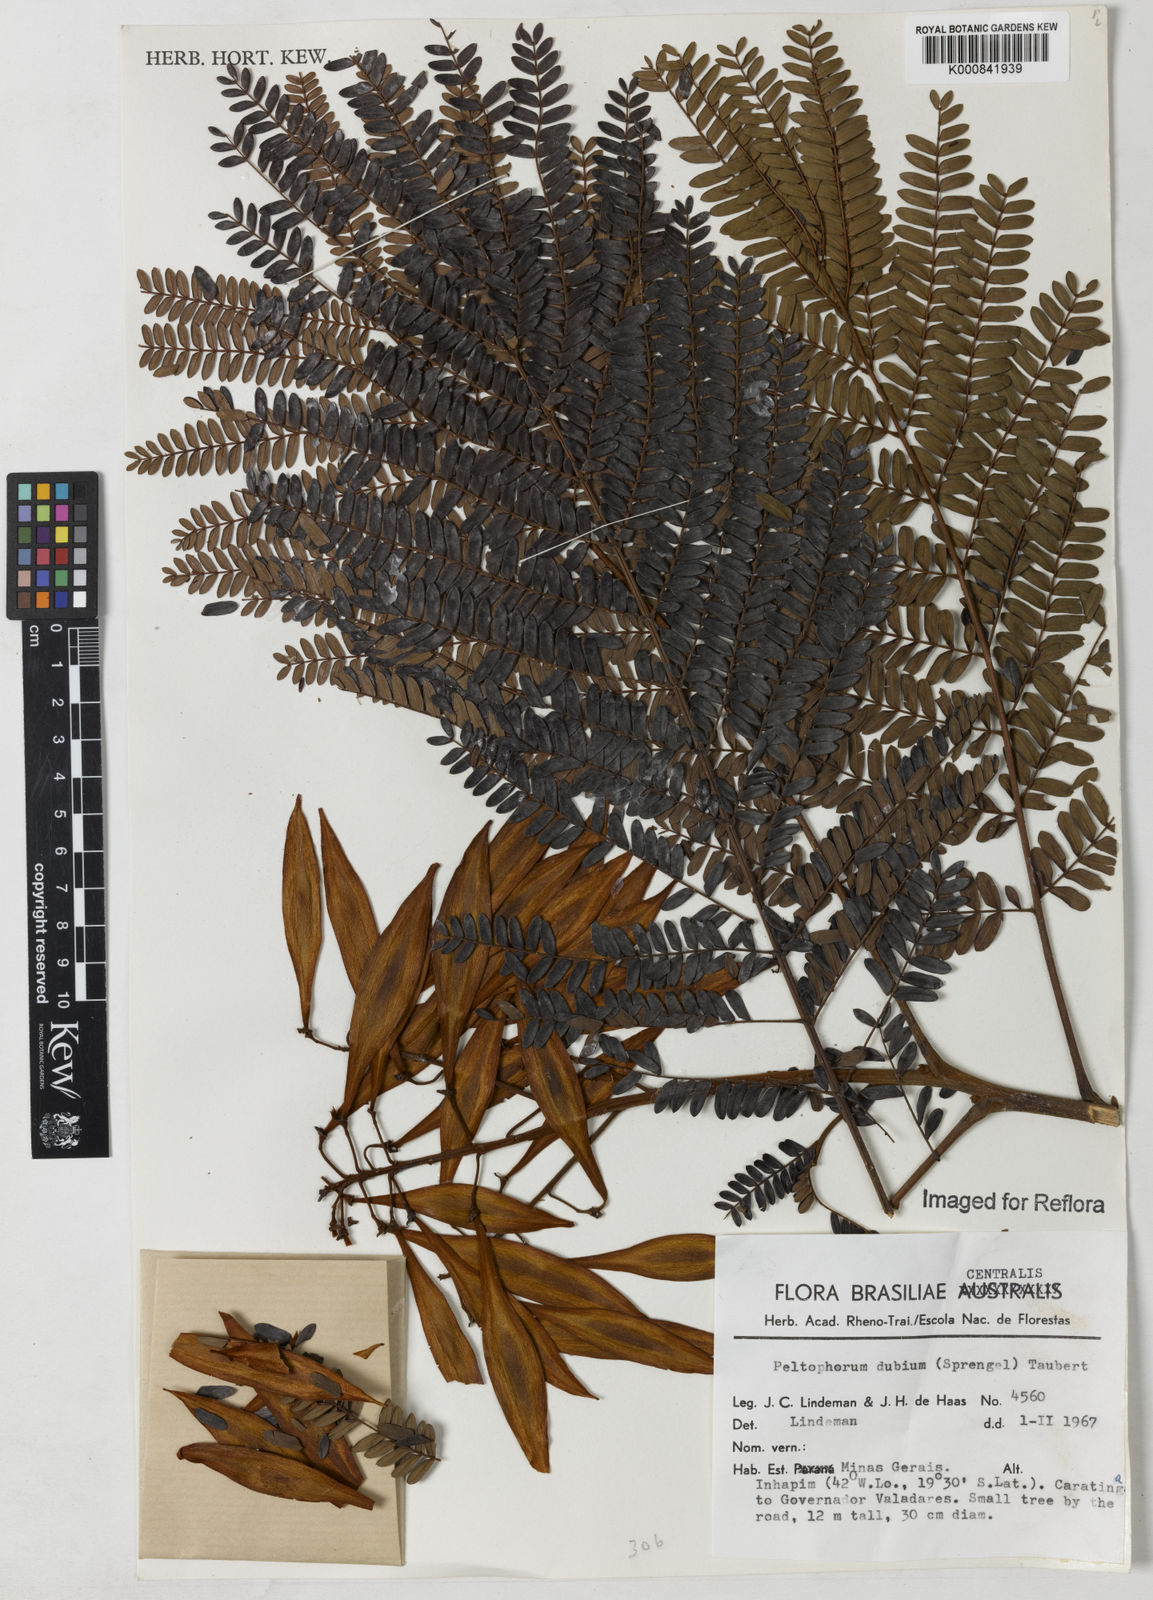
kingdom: Plantae
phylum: Tracheophyta
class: Magnoliopsida
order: Fabales
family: Fabaceae
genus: Peltophorum
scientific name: Peltophorum dubium
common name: Horsebush
